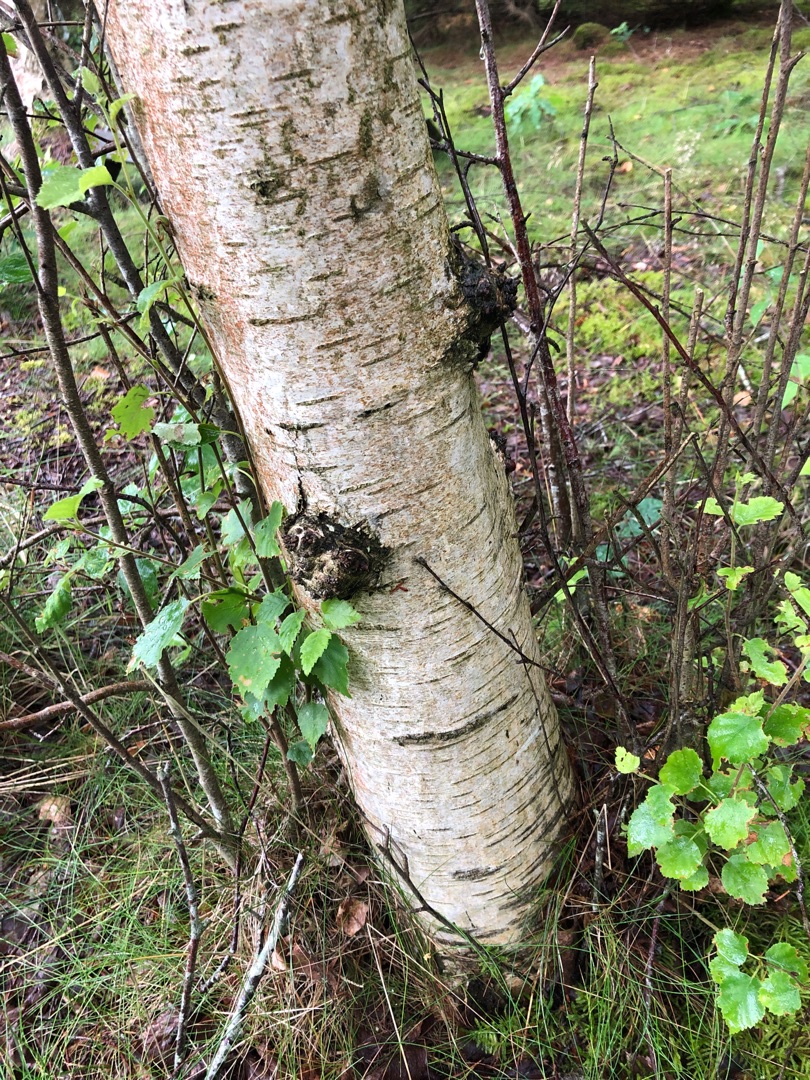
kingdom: Plantae
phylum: Tracheophyta
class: Magnoliopsida
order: Fagales
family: Betulaceae
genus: Betula
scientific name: Betula pubescens
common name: Dun-birk
